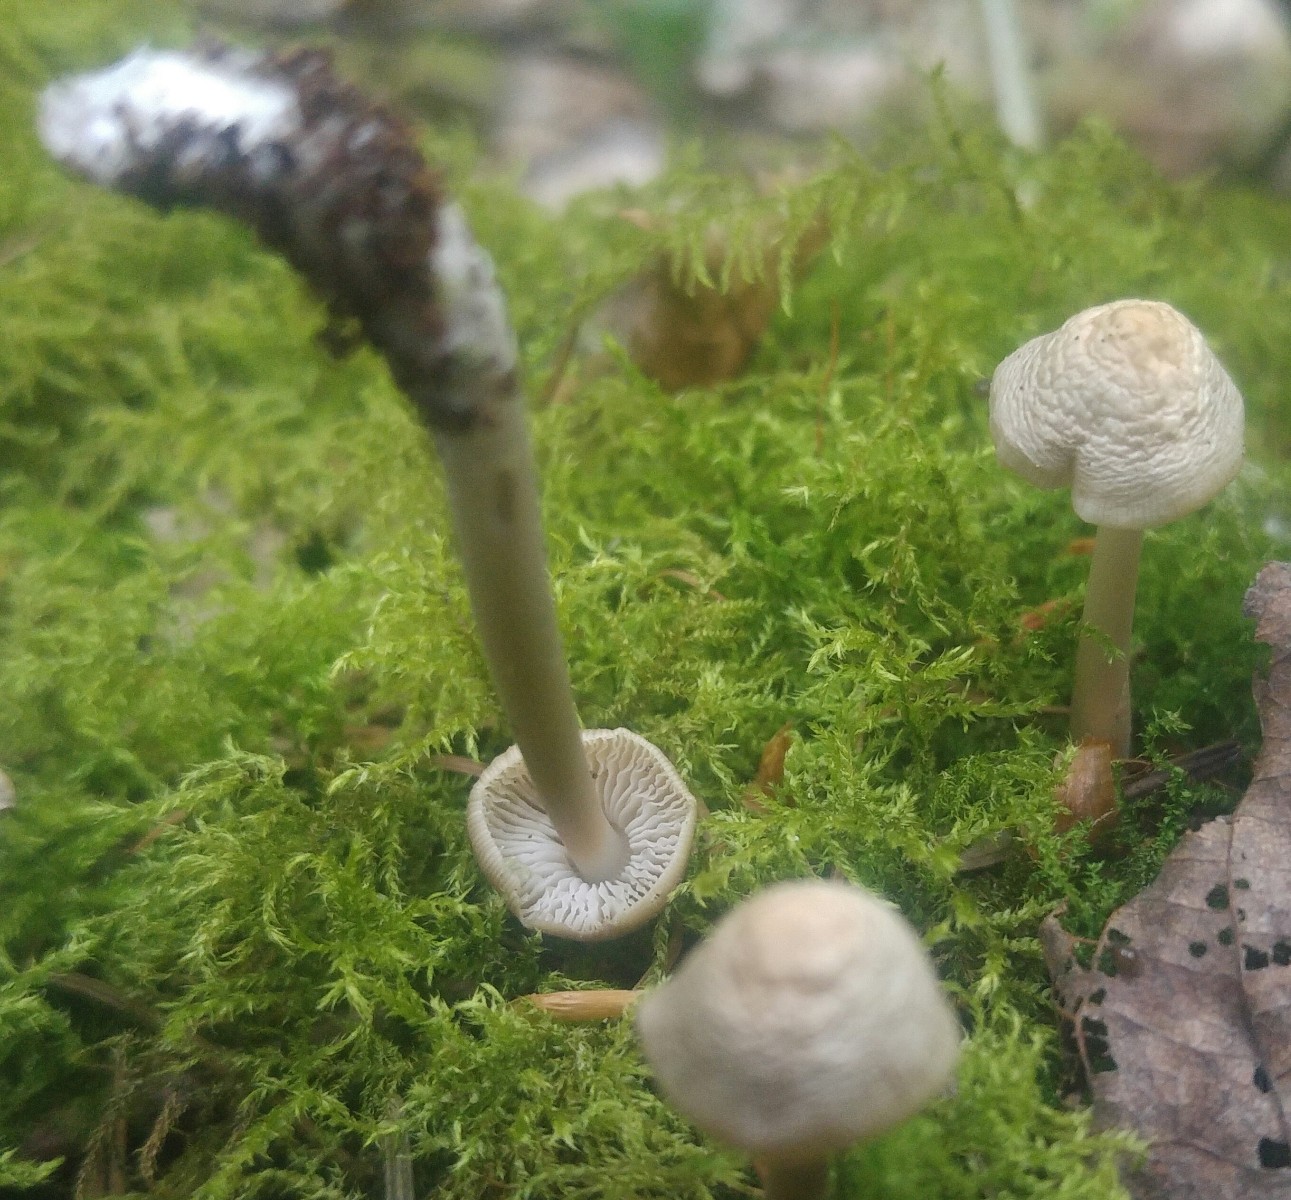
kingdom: Fungi
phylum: Basidiomycota
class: Agaricomycetes
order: Agaricales
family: Mycenaceae
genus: Mycena
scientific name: Mycena galericulata
